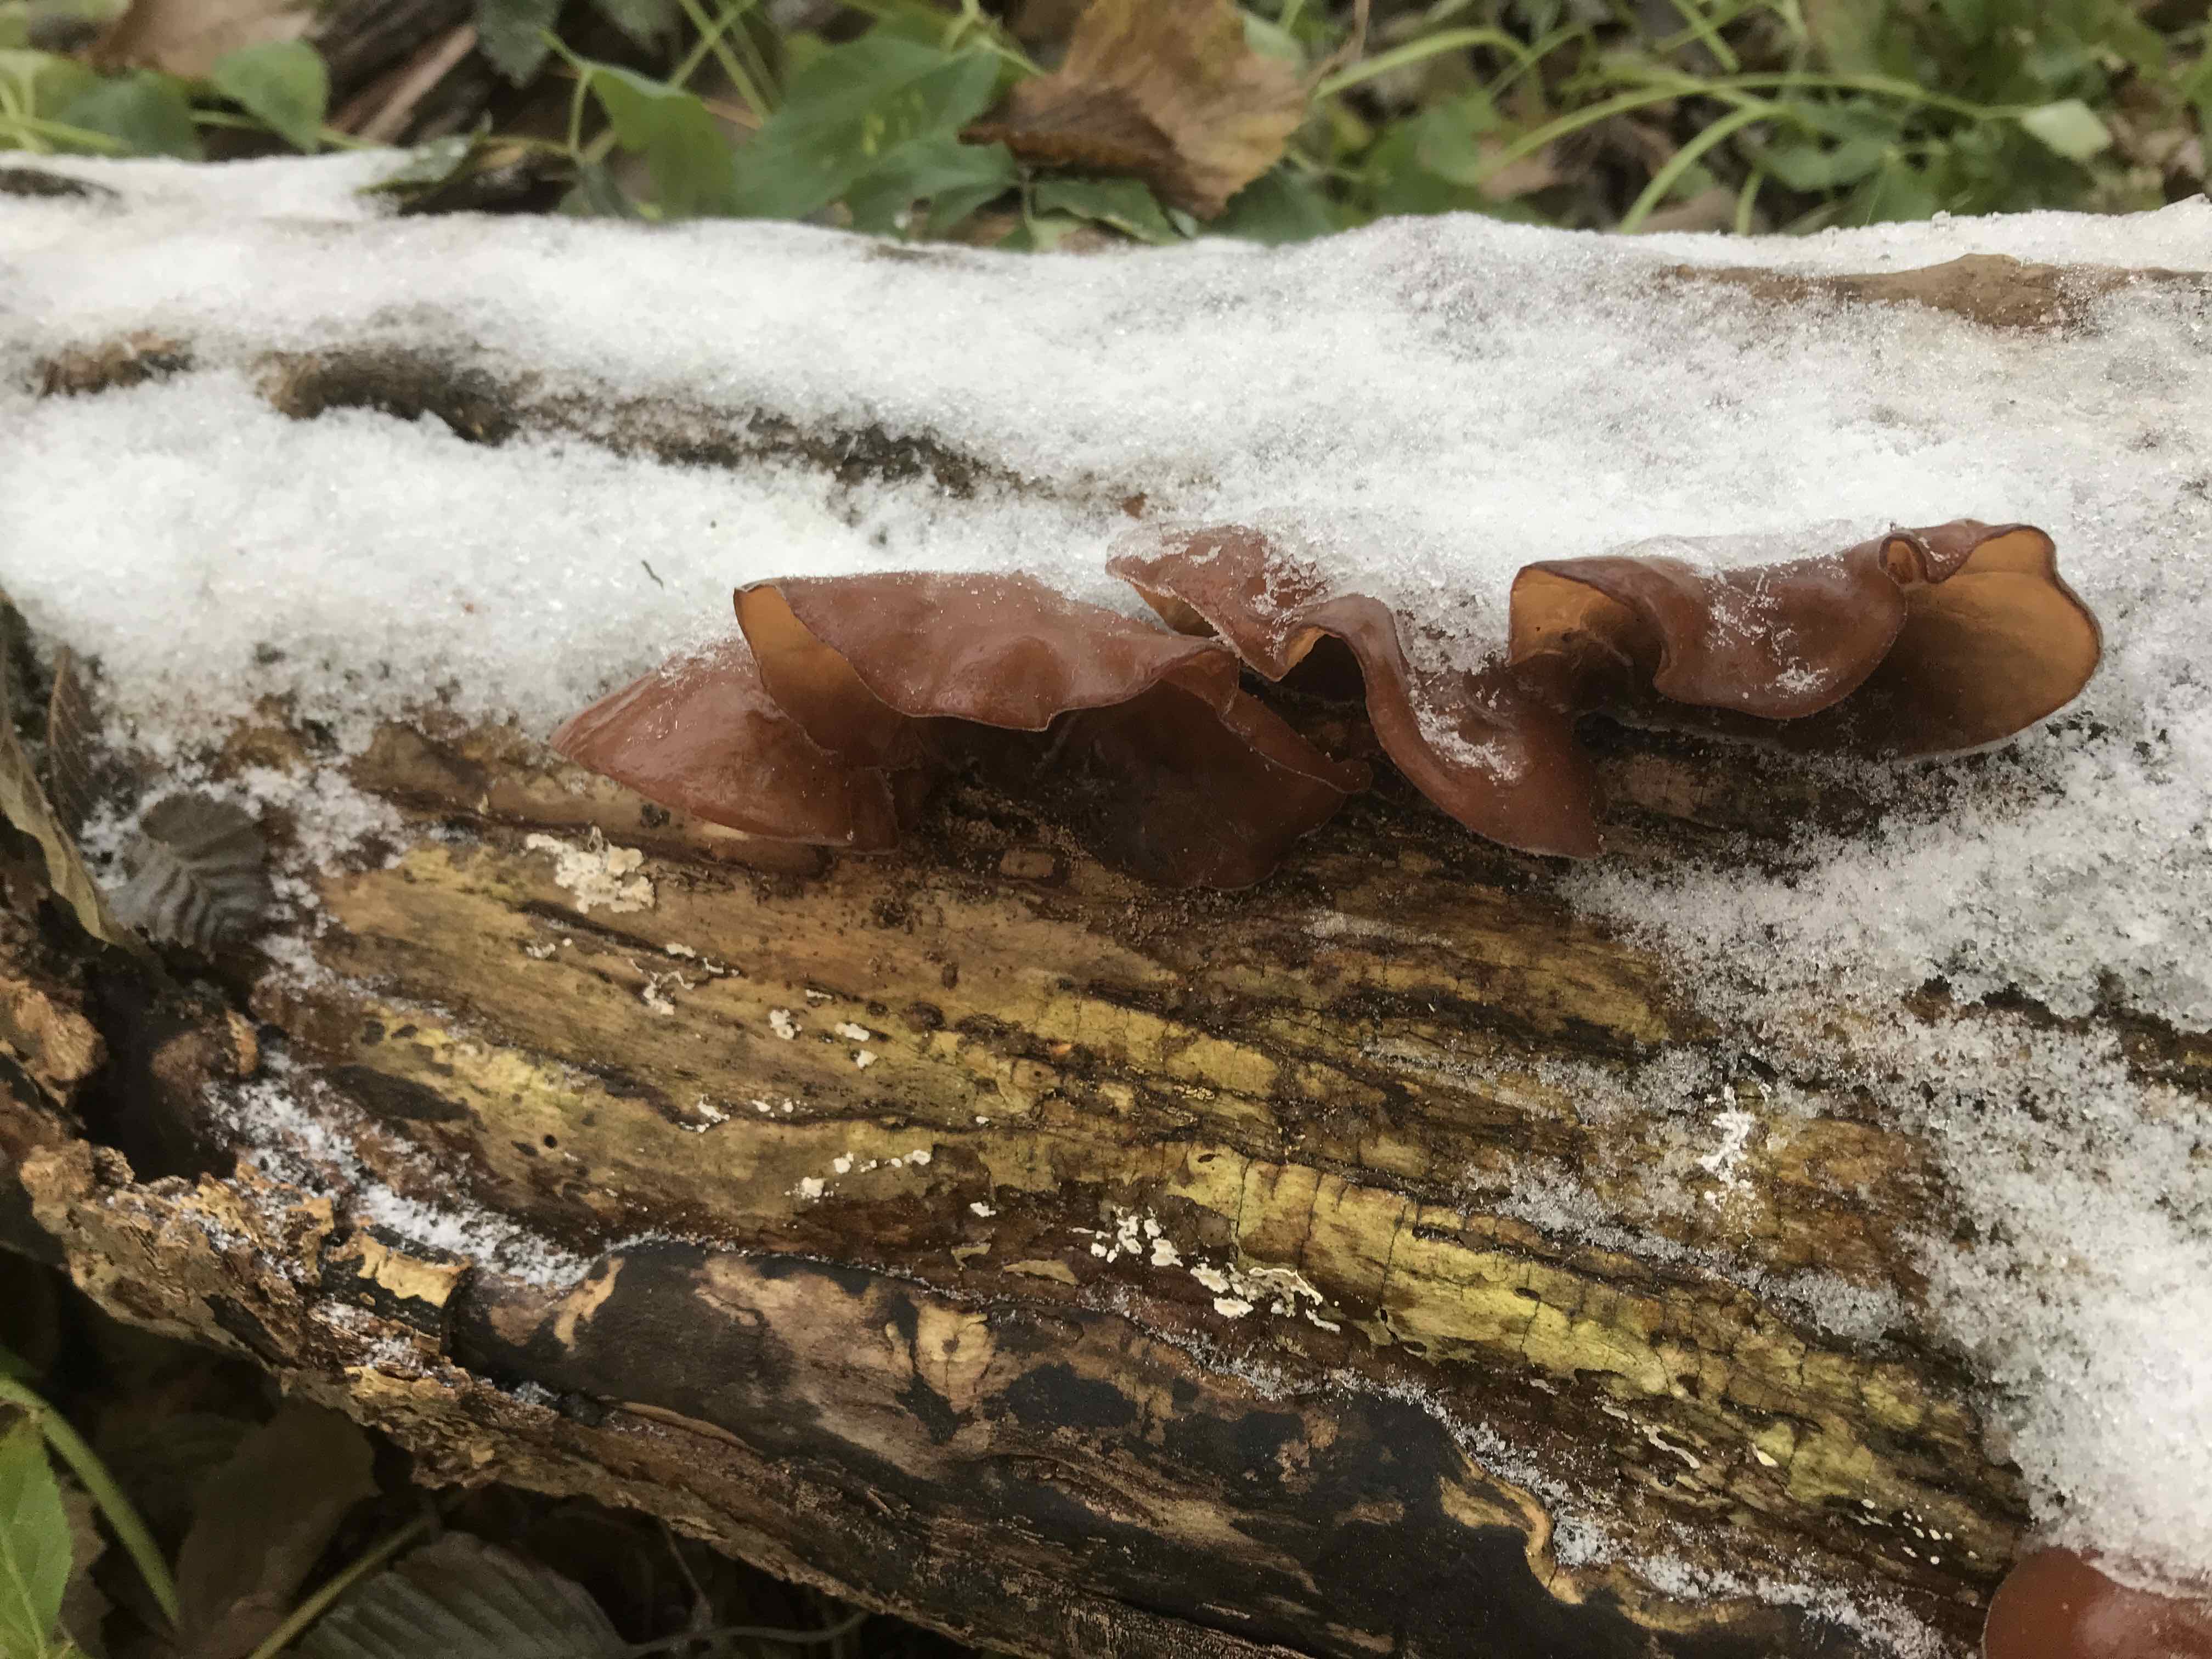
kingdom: Fungi
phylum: Basidiomycota
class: Agaricomycetes
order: Auriculariales
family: Auriculariaceae
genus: Auricularia
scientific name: Auricularia auricula-judae
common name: almindelig judasøre
